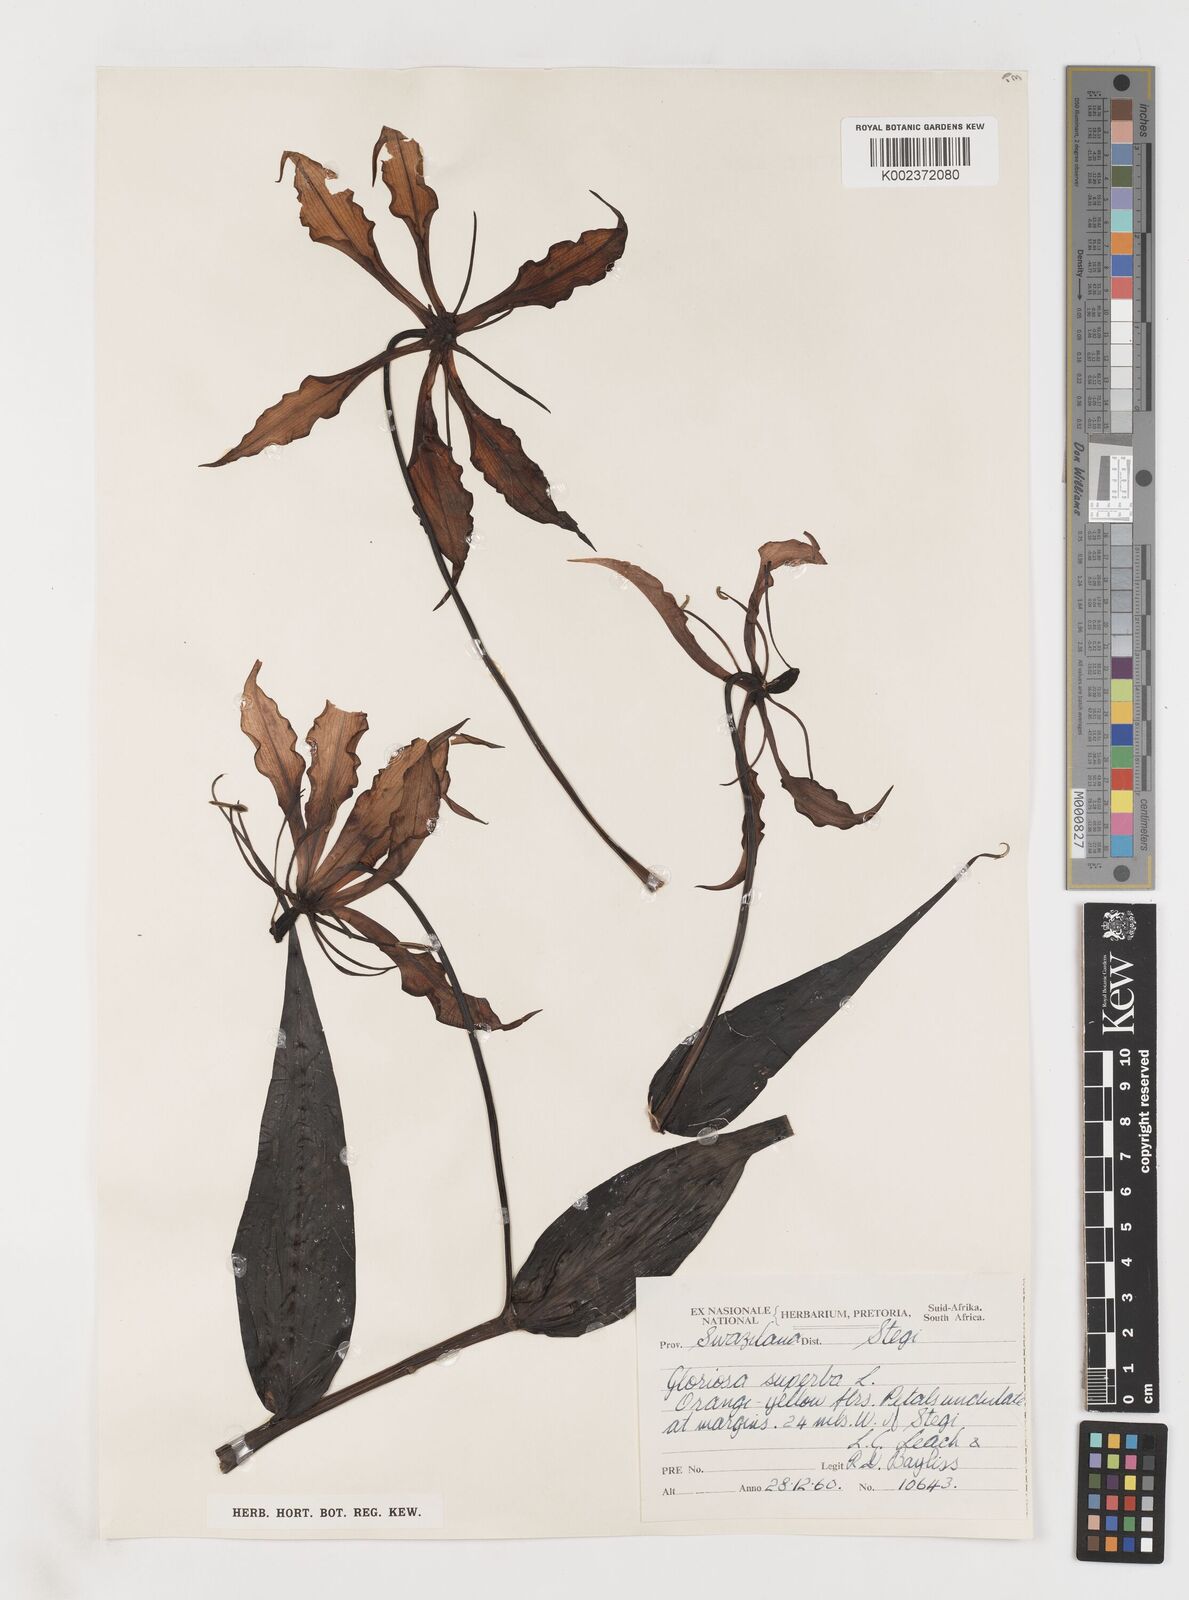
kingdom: Plantae
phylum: Tracheophyta
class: Liliopsida
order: Liliales
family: Colchicaceae
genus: Gloriosa
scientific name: Gloriosa simplex
